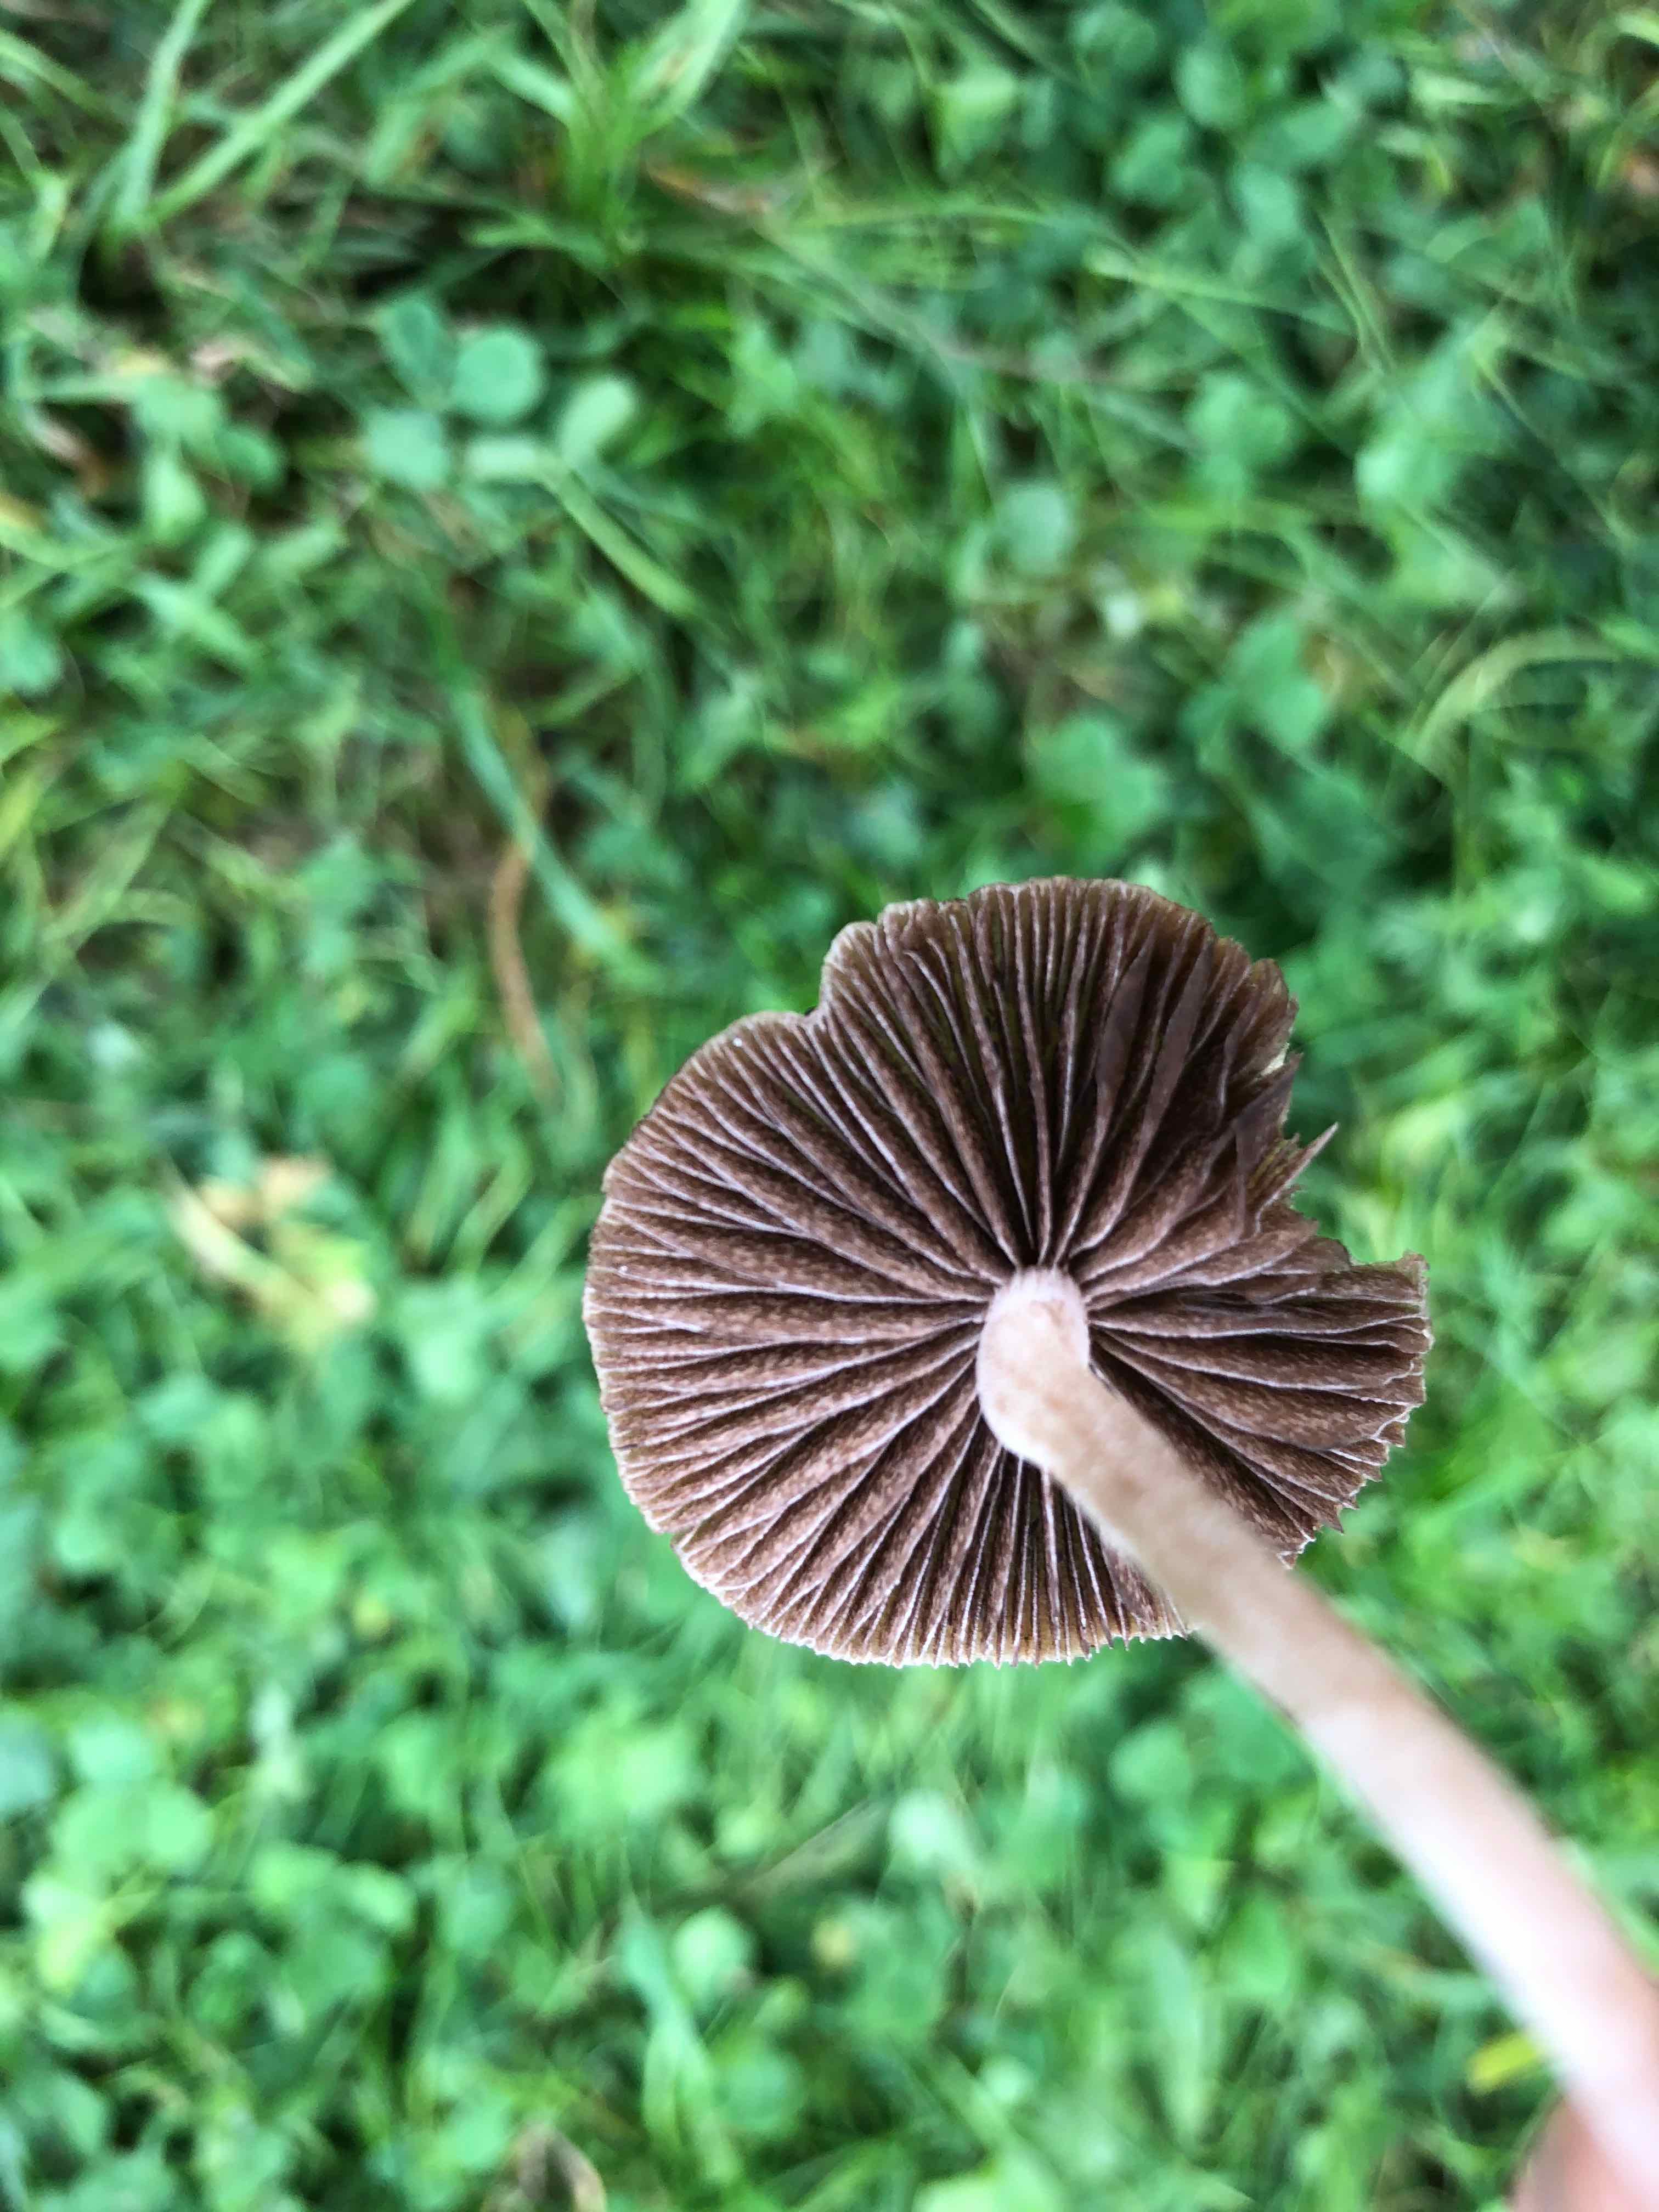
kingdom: Fungi
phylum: Basidiomycota
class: Agaricomycetes
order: Agaricales
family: Bolbitiaceae
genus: Panaeolina
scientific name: Panaeolina foenisecii
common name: høslætsvamp
